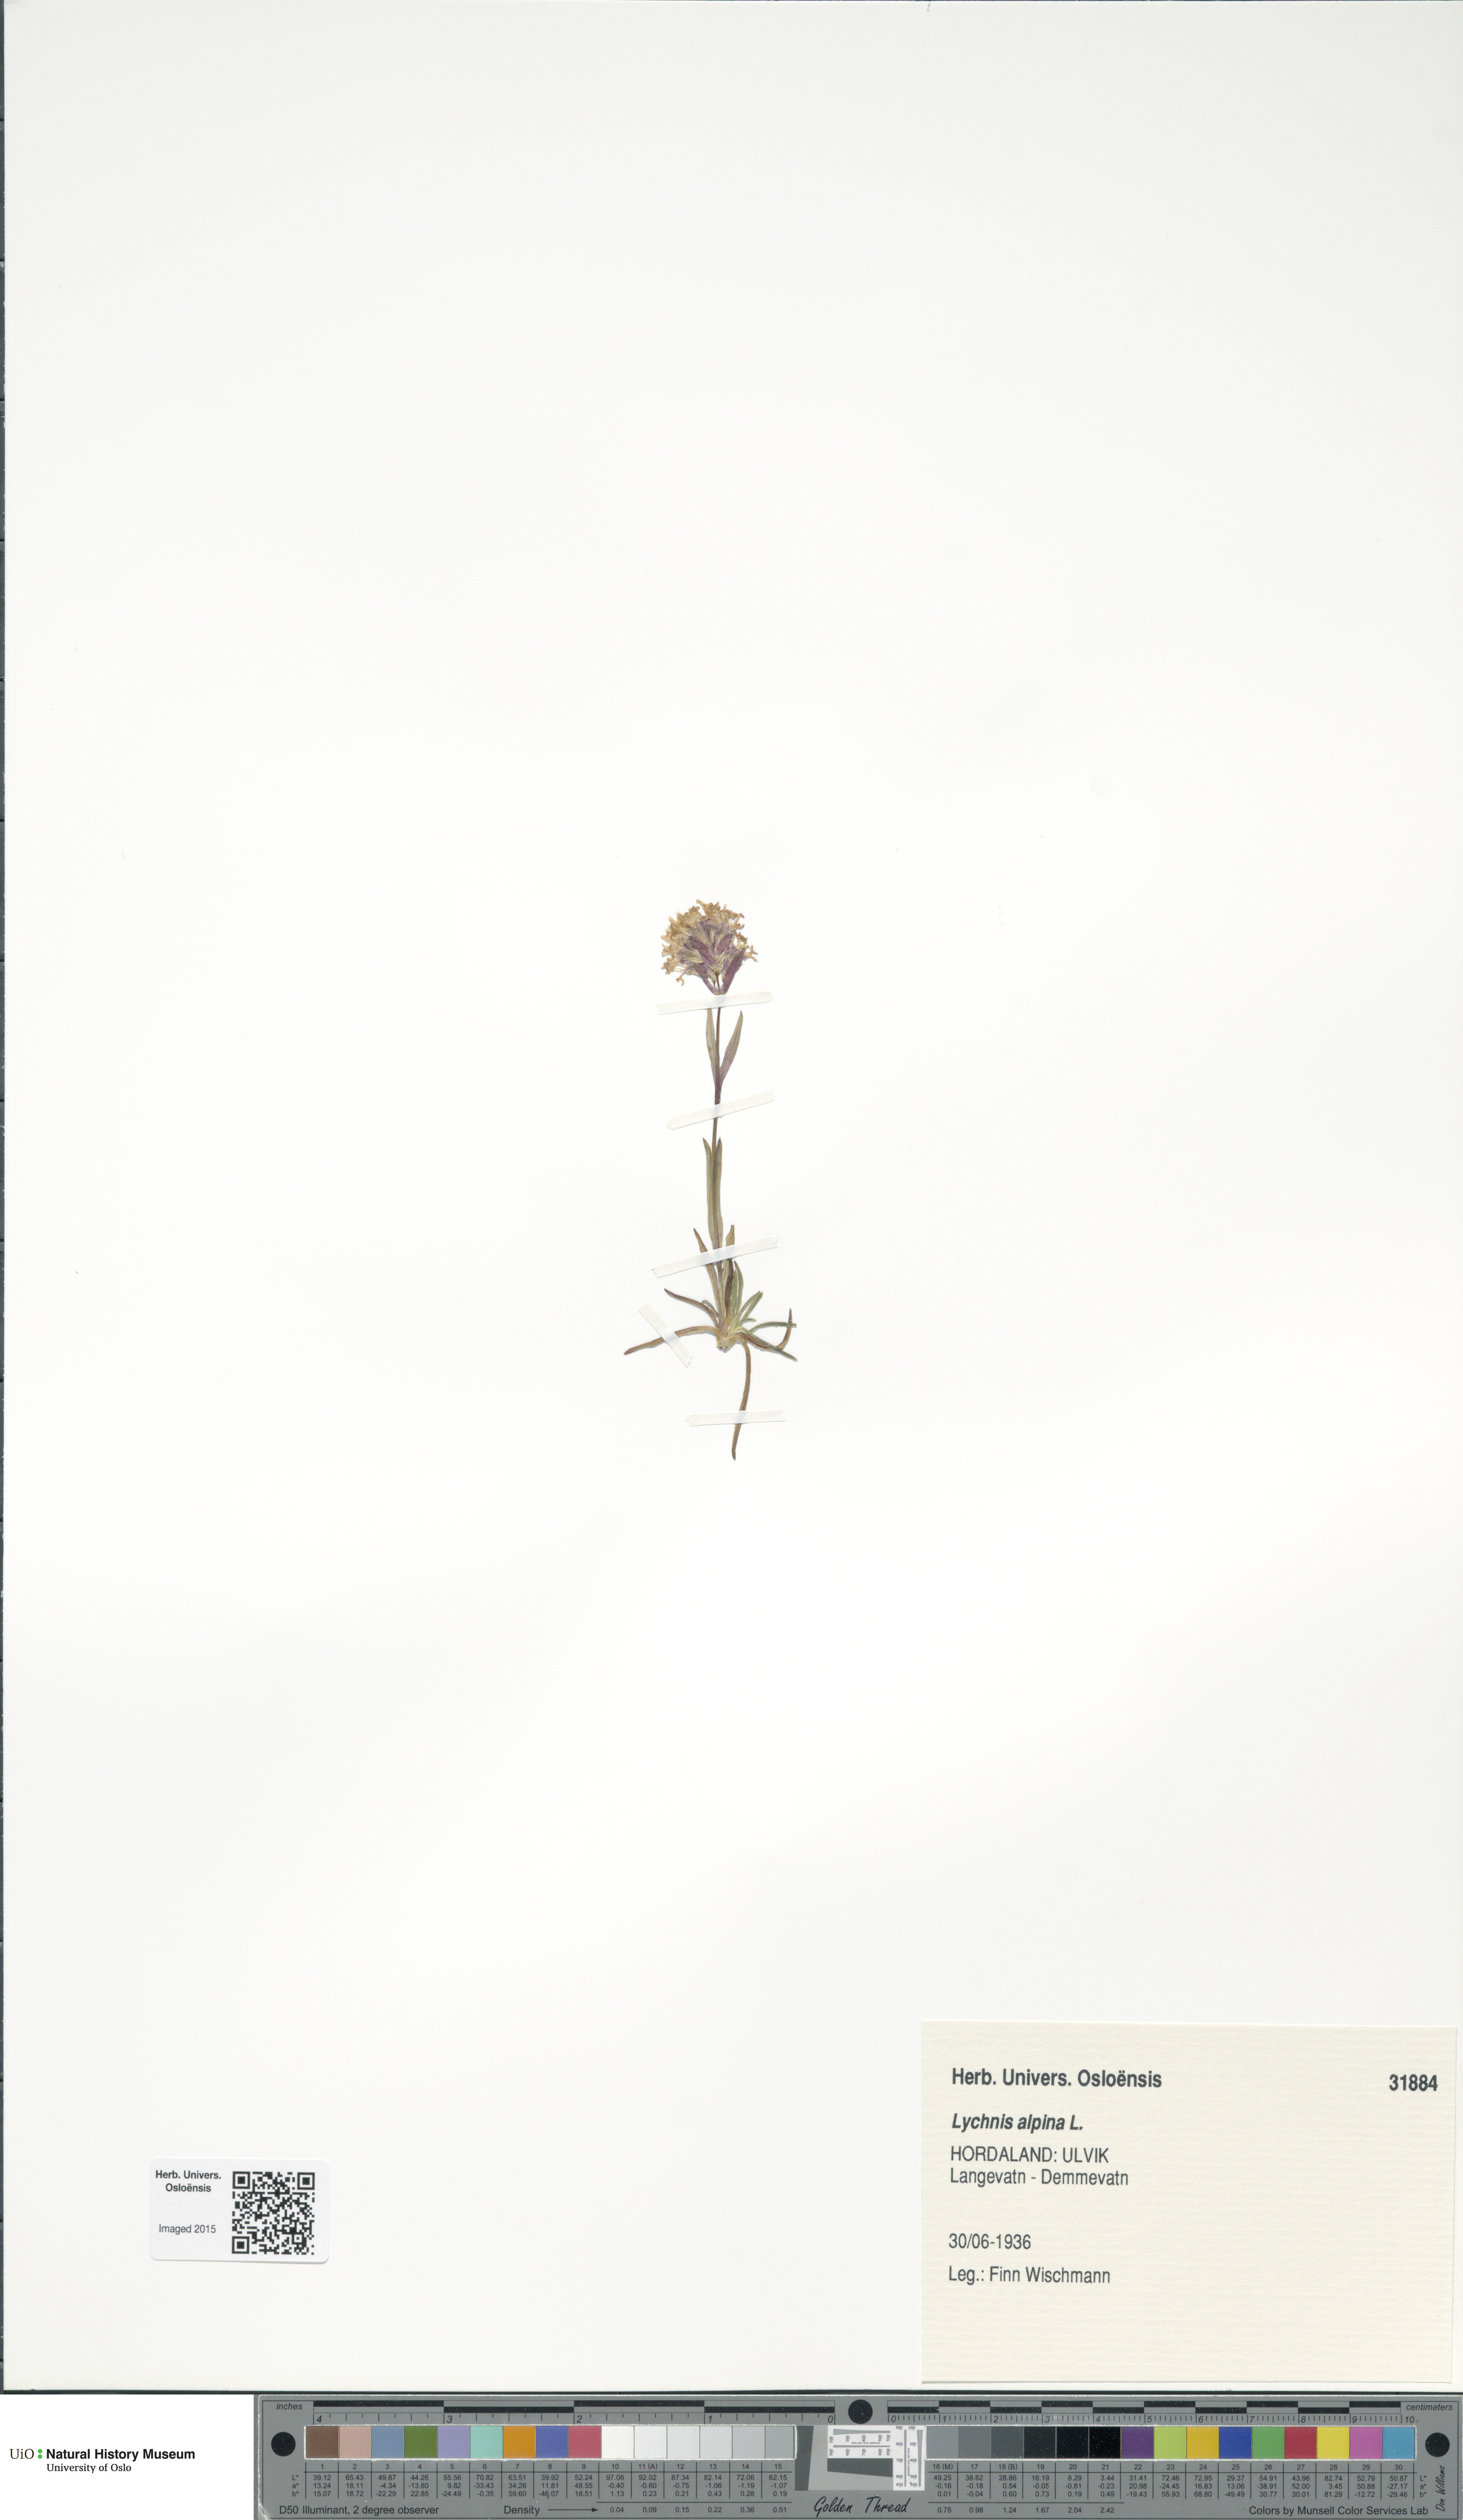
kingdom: Plantae
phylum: Tracheophyta
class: Magnoliopsida
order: Caryophyllales
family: Caryophyllaceae
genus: Viscaria
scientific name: Viscaria alpina
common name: Alpine campion
